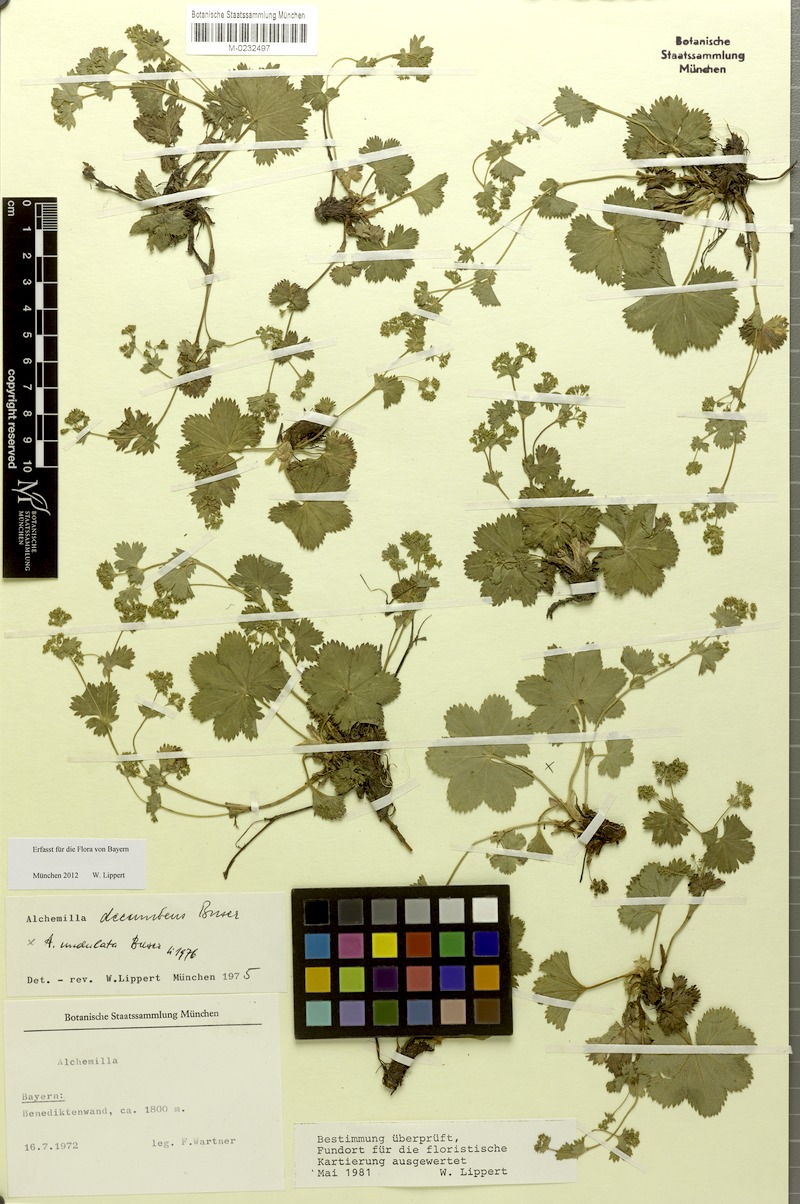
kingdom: Plantae
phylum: Tracheophyta
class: Magnoliopsida
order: Rosales
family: Rosaceae
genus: Alchemilla
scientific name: Alchemilla decumbens
